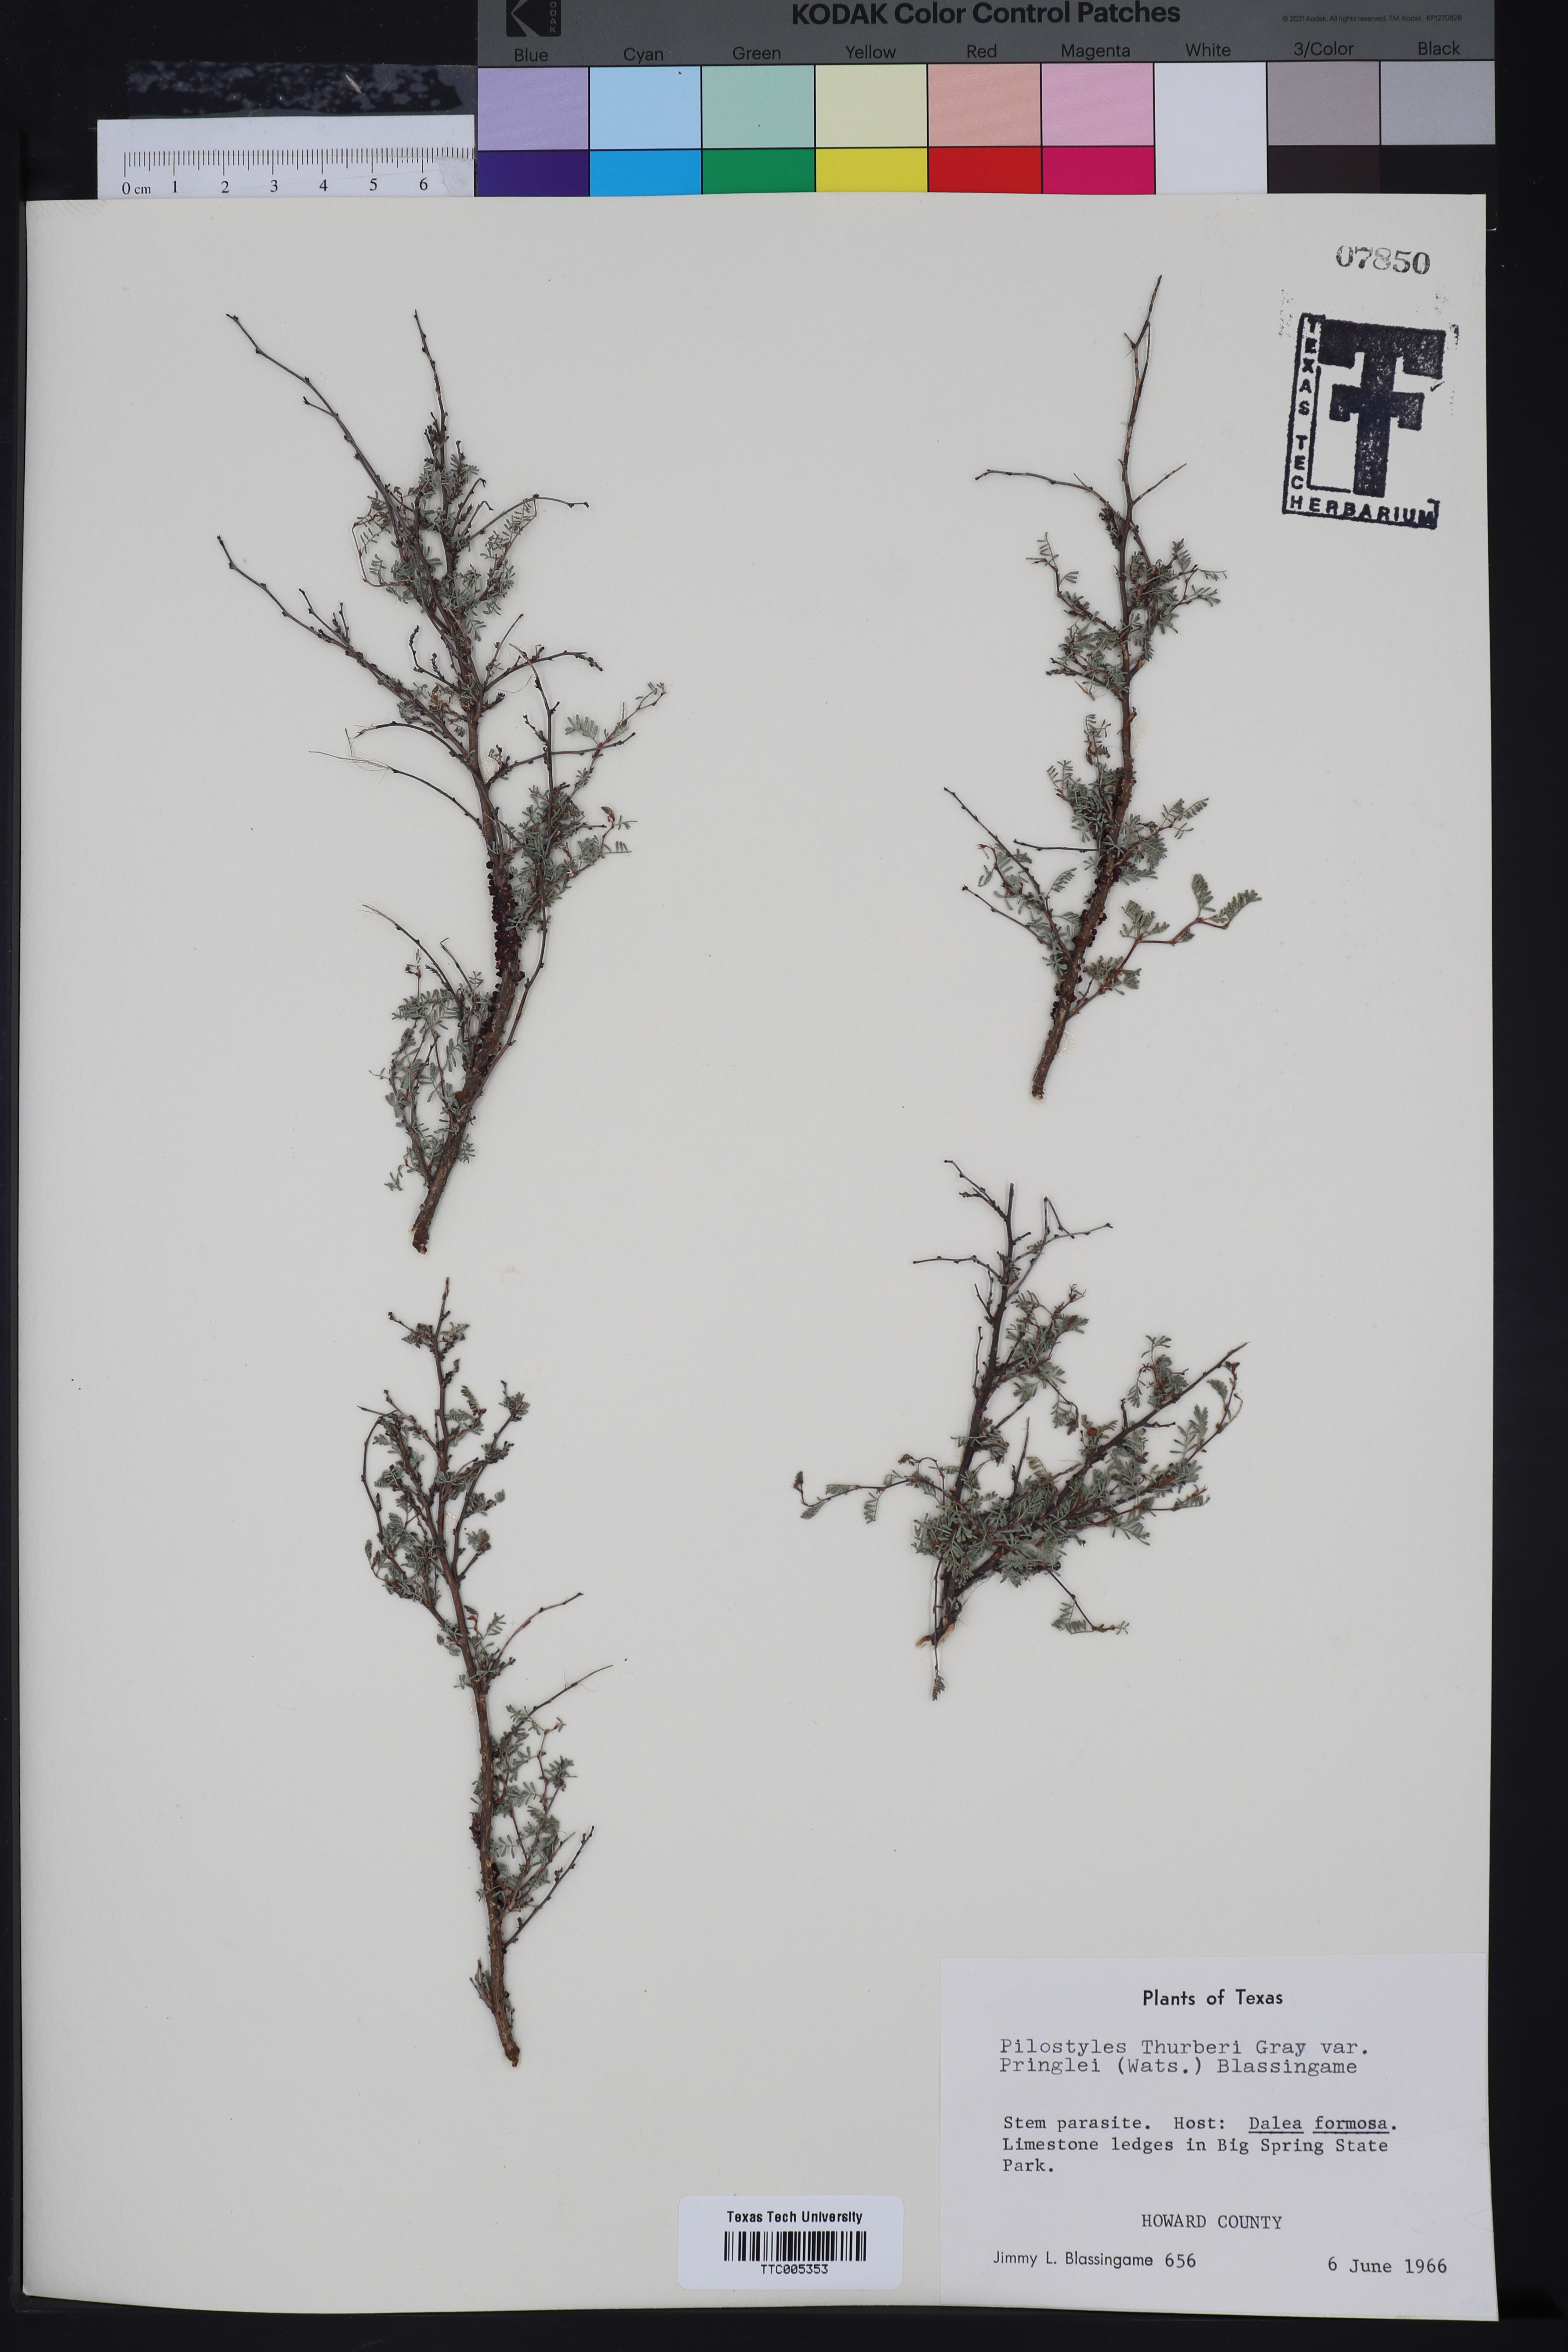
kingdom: Plantae
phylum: Tracheophyta
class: Magnoliopsida
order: Cucurbitales
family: Apodanthaceae
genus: Pilostyles
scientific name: Pilostyles thurberi
